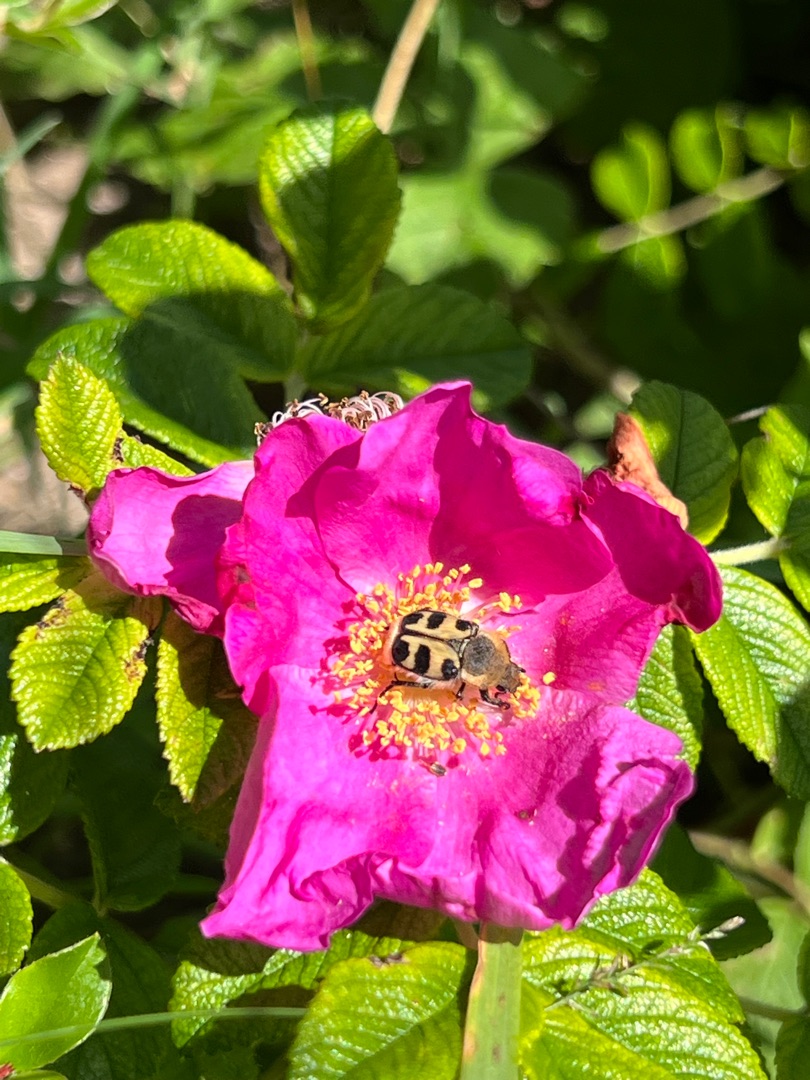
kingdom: Animalia
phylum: Arthropoda
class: Insecta
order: Coleoptera
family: Scarabaeidae
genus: Trichius
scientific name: Trichius gallicus
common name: Lille humlebille
